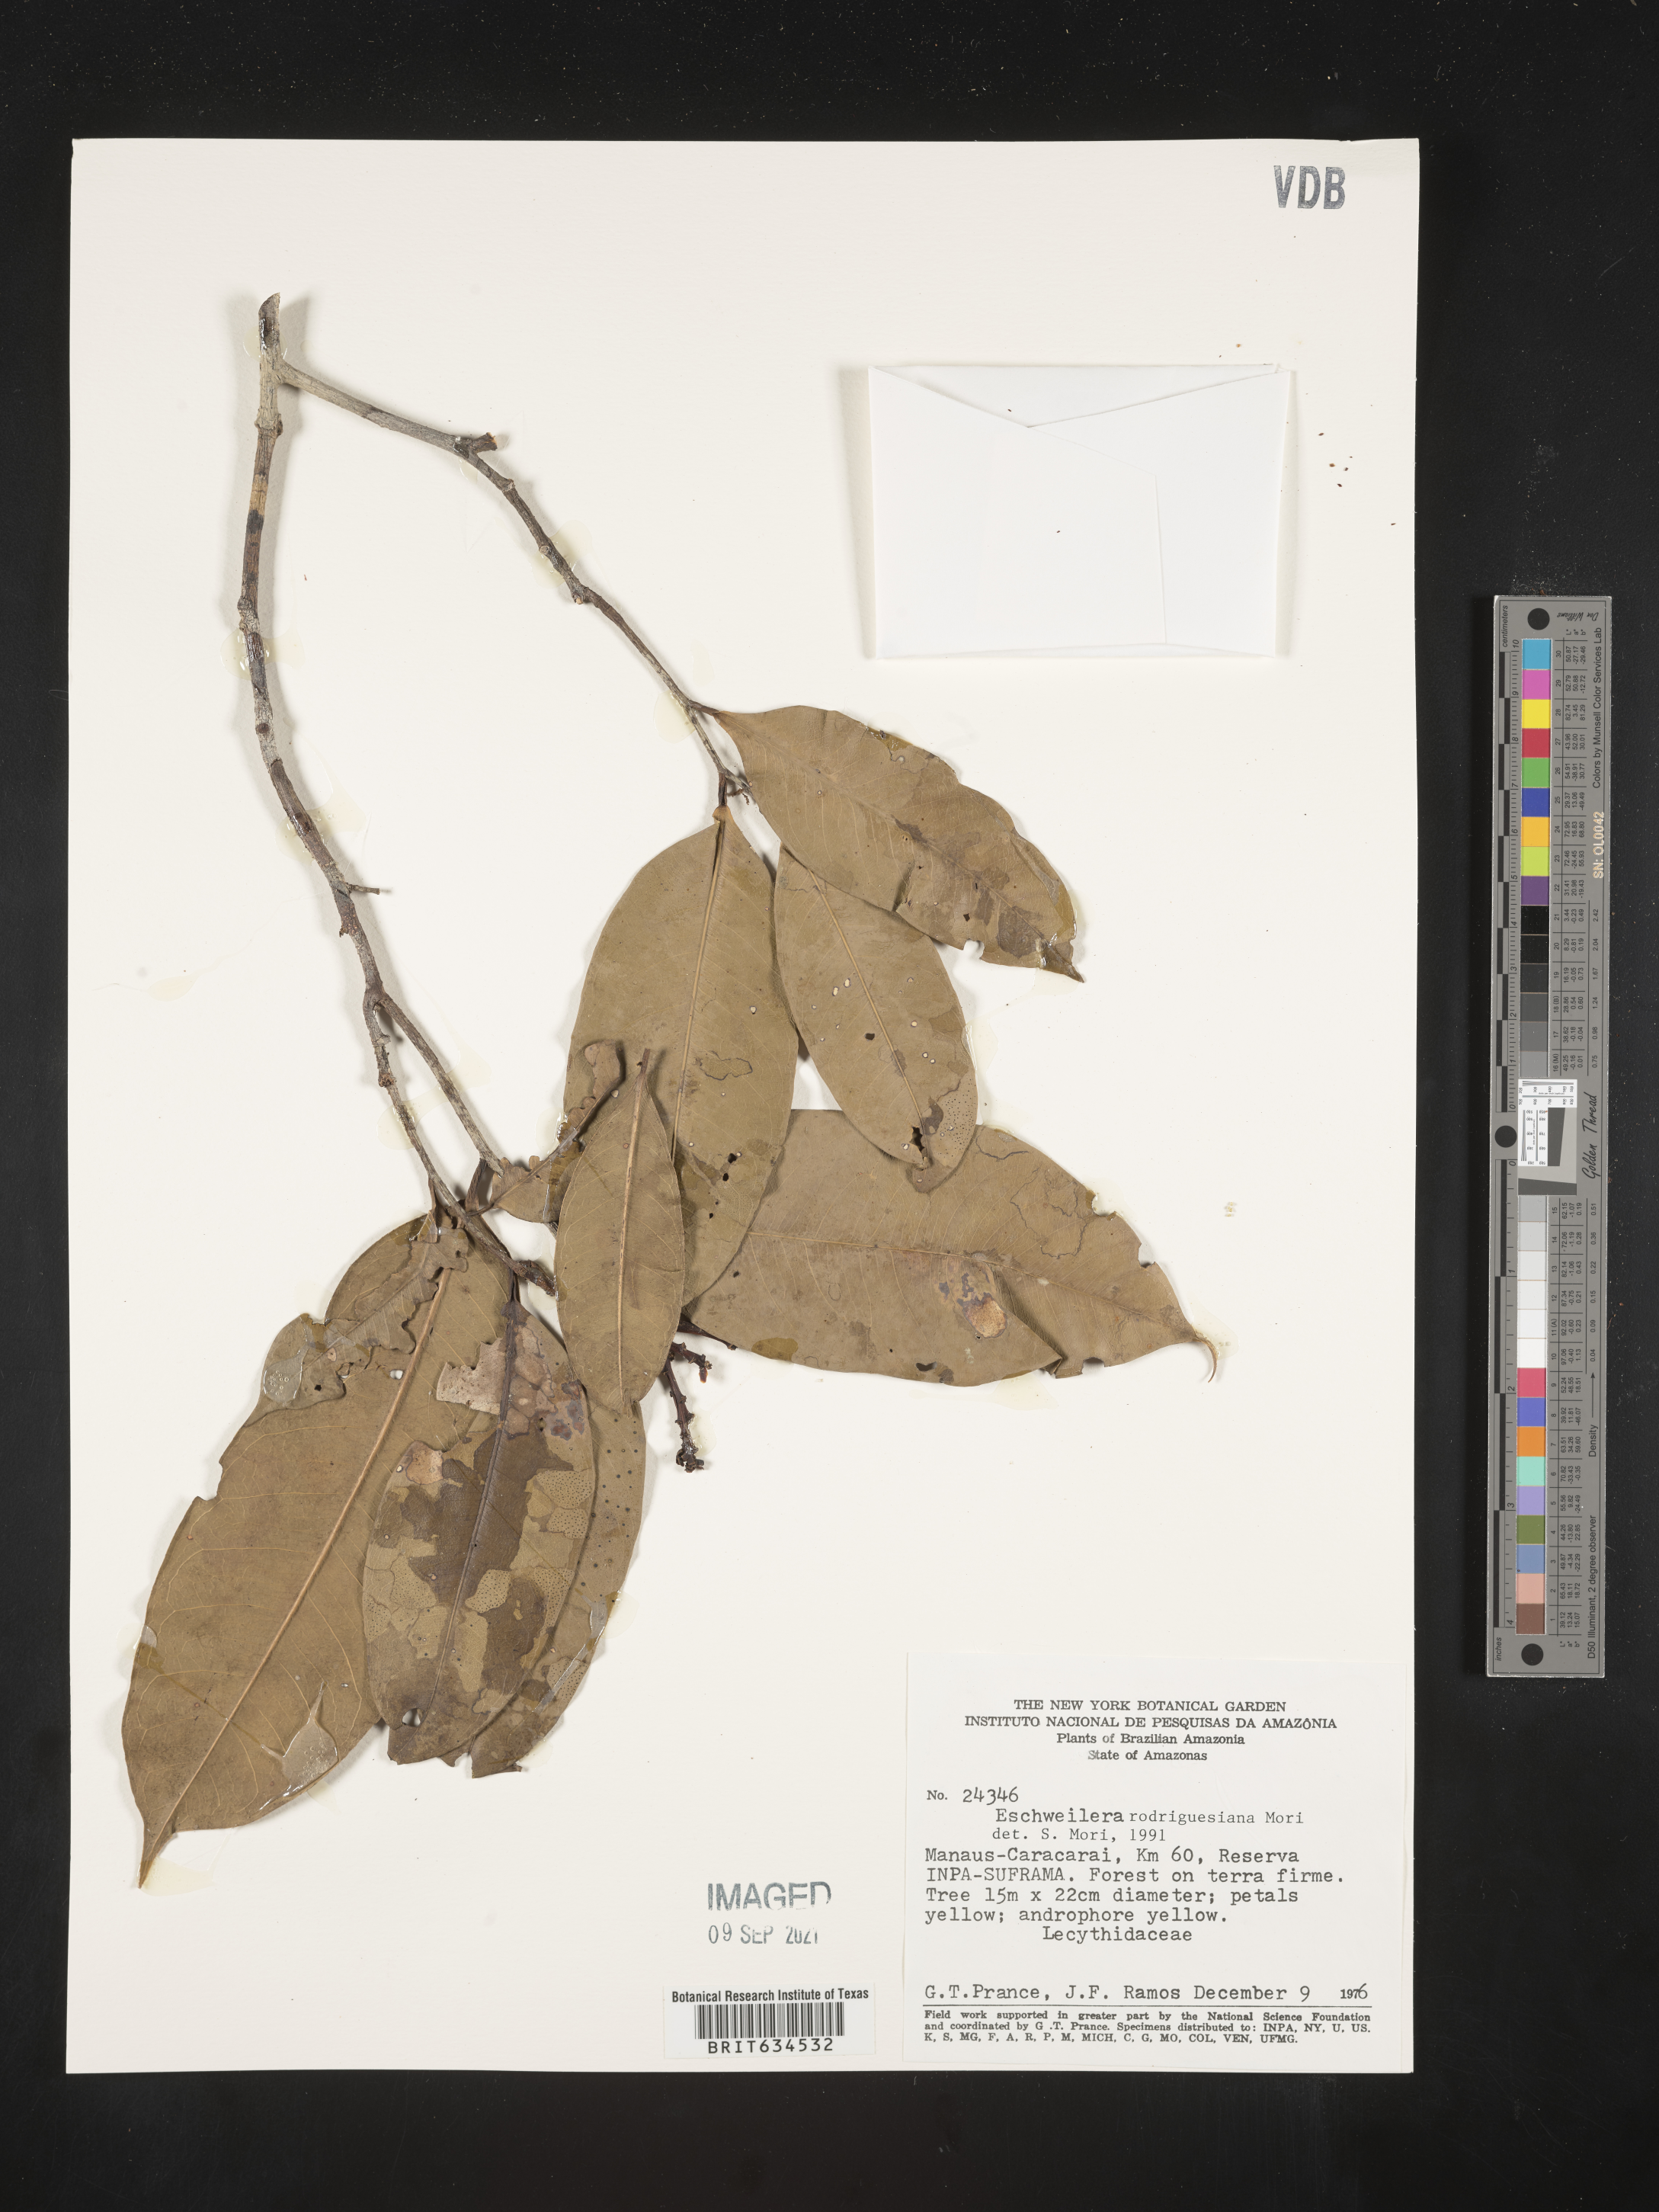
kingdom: Plantae
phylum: Tracheophyta
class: Magnoliopsida
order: Ericales
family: Lecythidaceae
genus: Eschweilera
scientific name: Eschweilera
